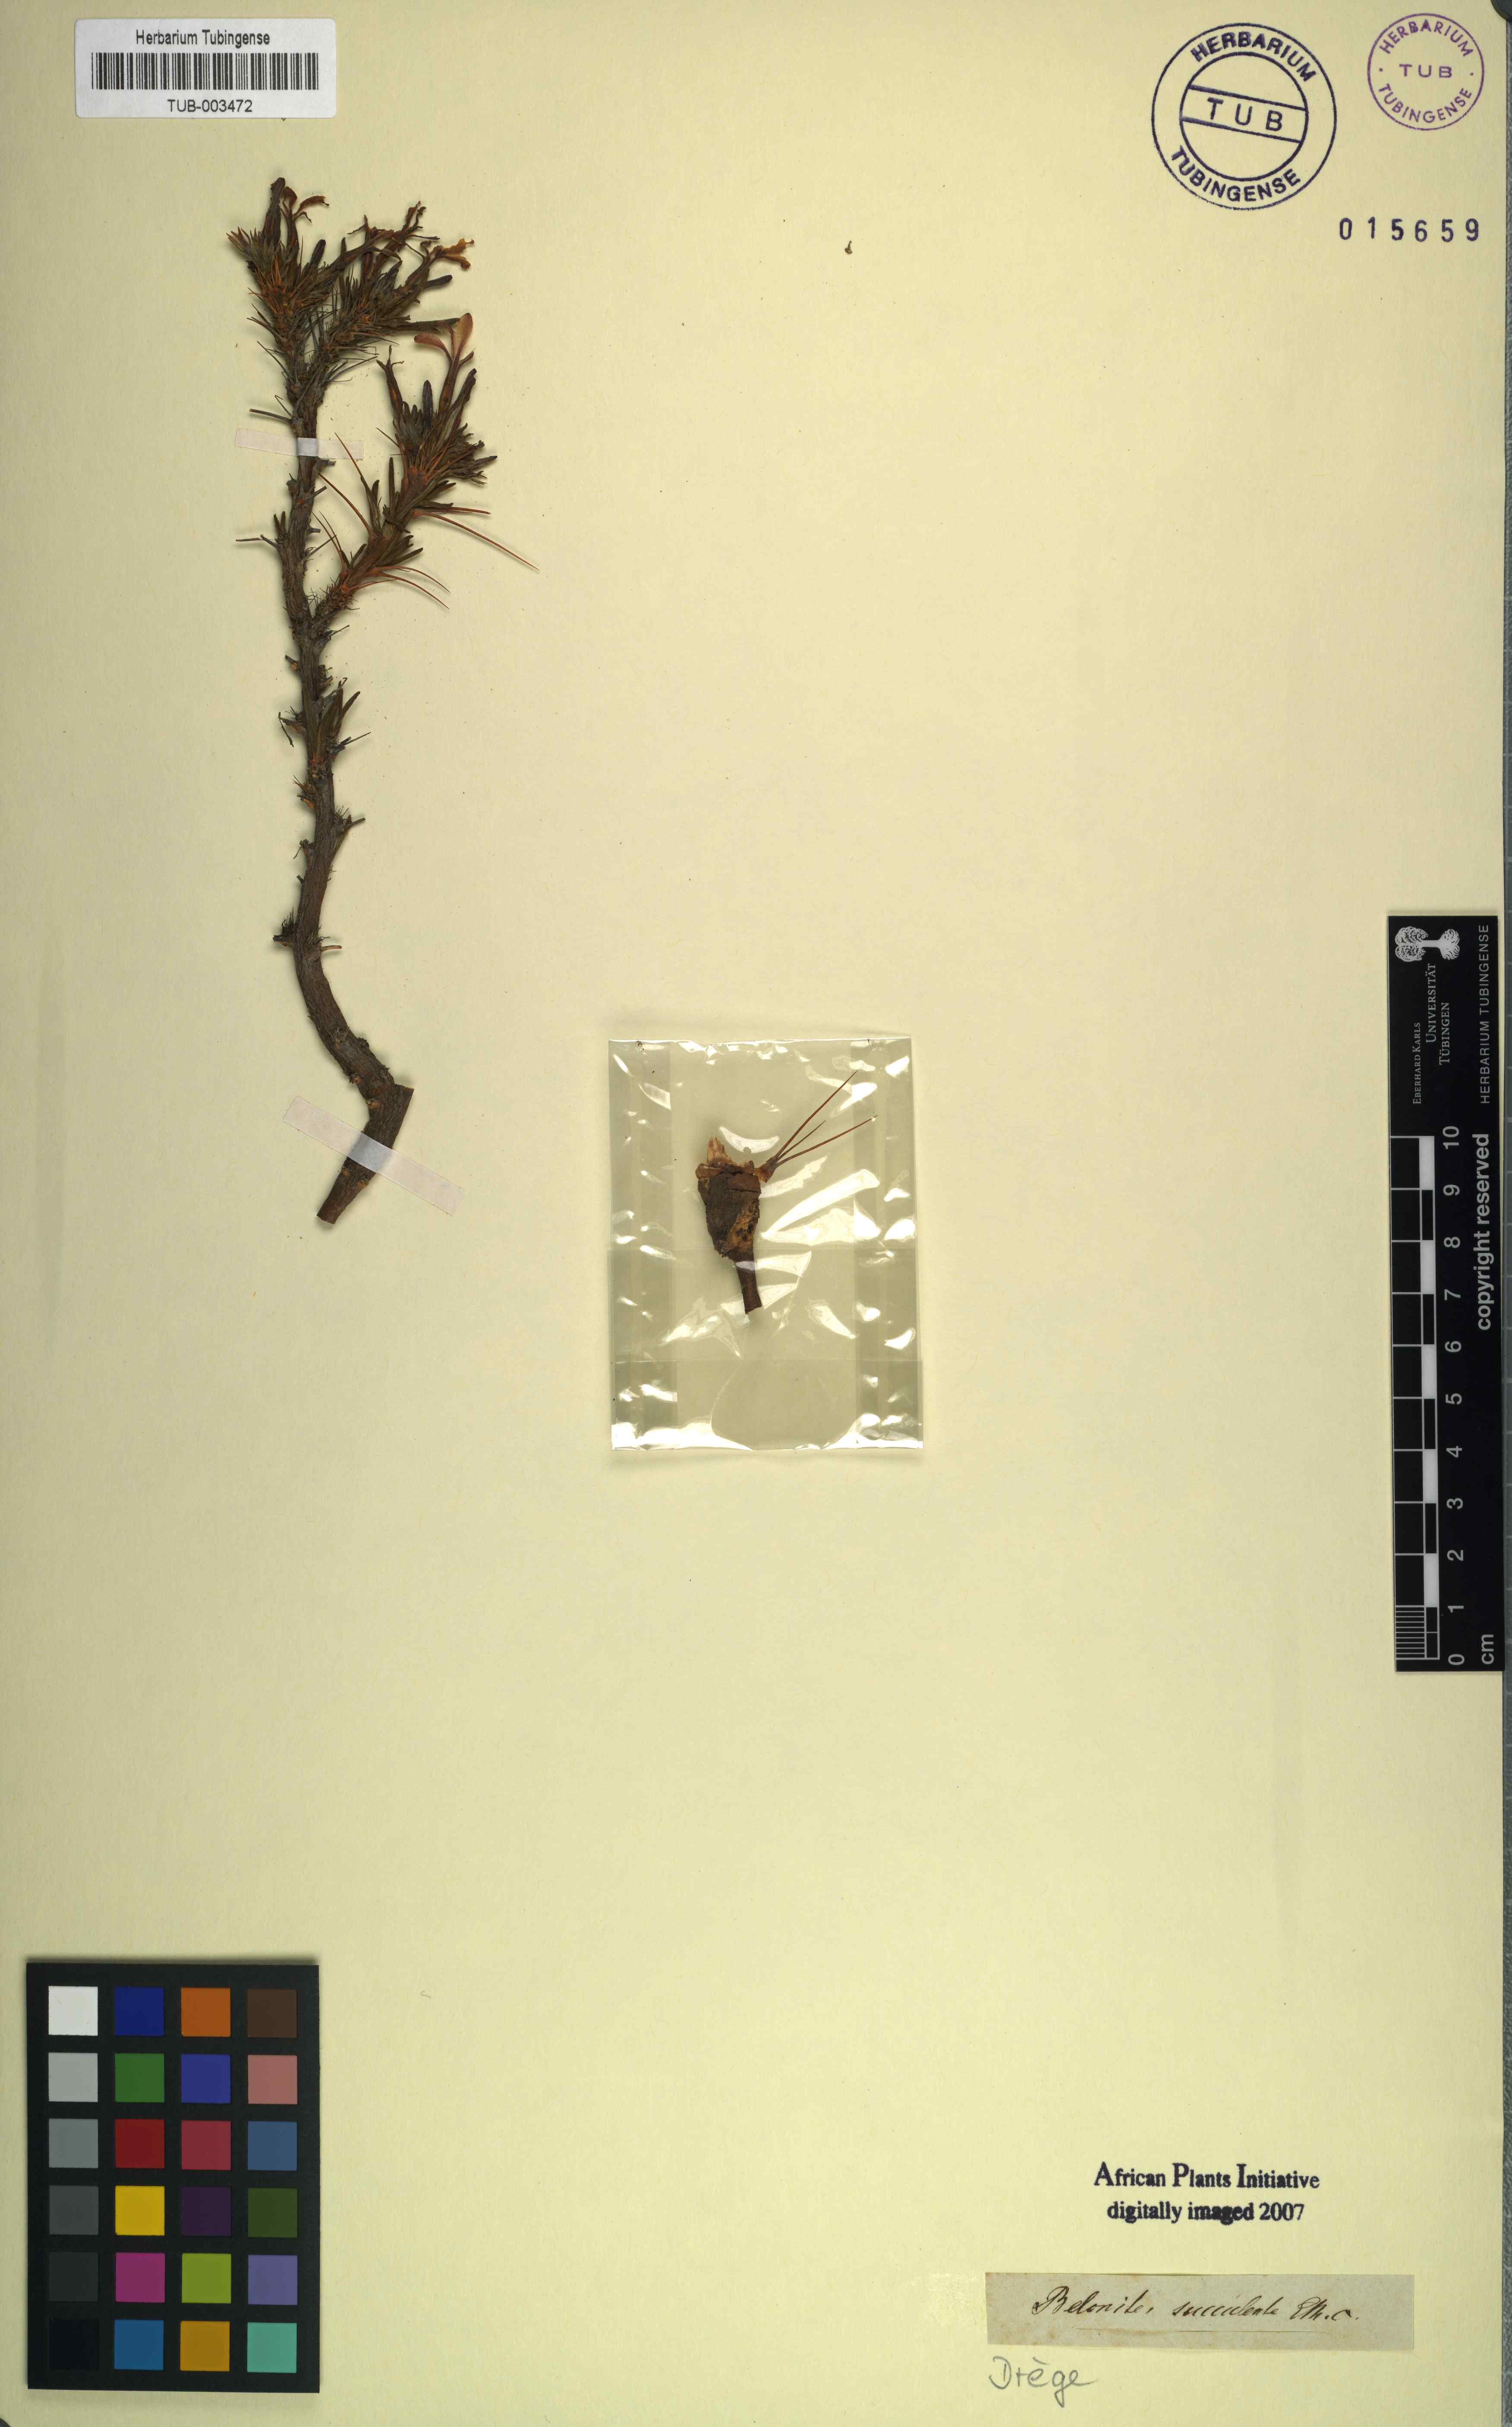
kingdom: Plantae
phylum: Tracheophyta
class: Magnoliopsida
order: Gentianales
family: Apocynaceae
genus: Pachypodium
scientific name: Pachypodium succulentum
